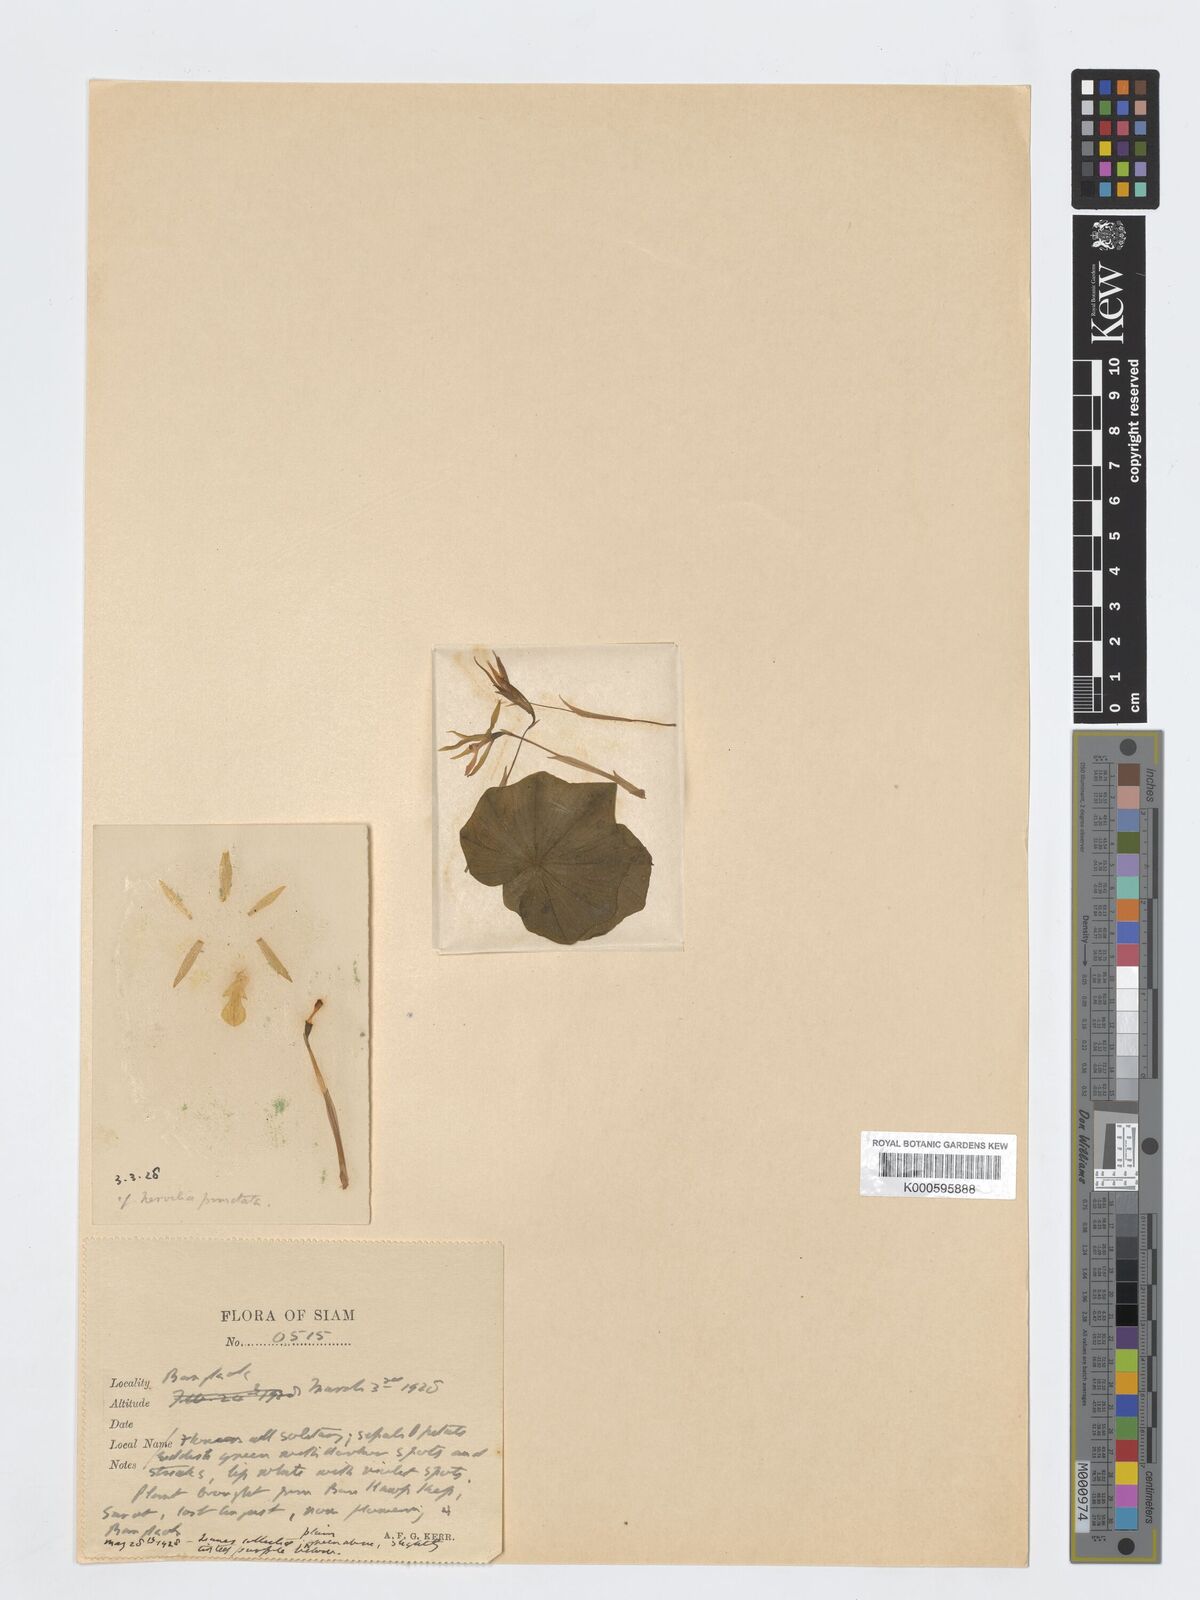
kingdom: Plantae
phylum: Tracheophyta
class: Liliopsida
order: Asparagales
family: Orchidaceae
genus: Nervilia
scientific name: Nervilia
